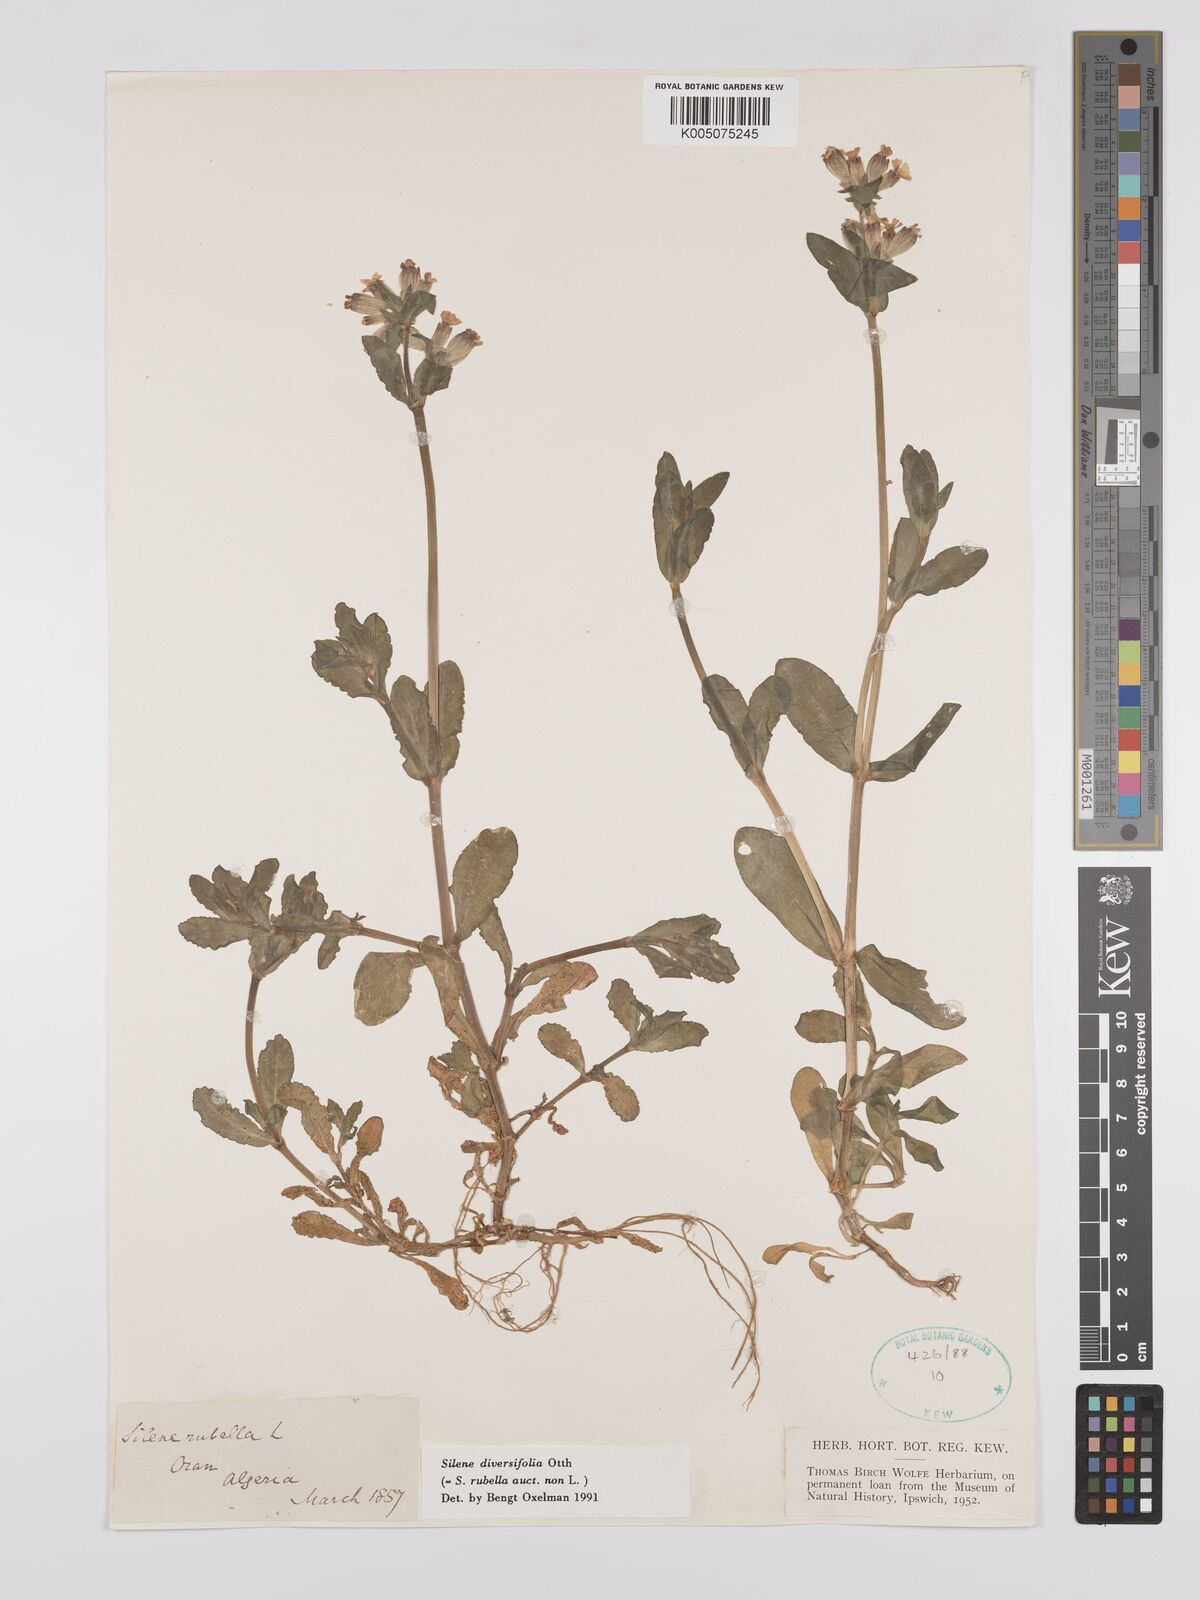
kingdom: Plantae
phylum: Tracheophyta
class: Magnoliopsida
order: Caryophyllales
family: Caryophyllaceae
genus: Silene
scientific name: Silene rubella
